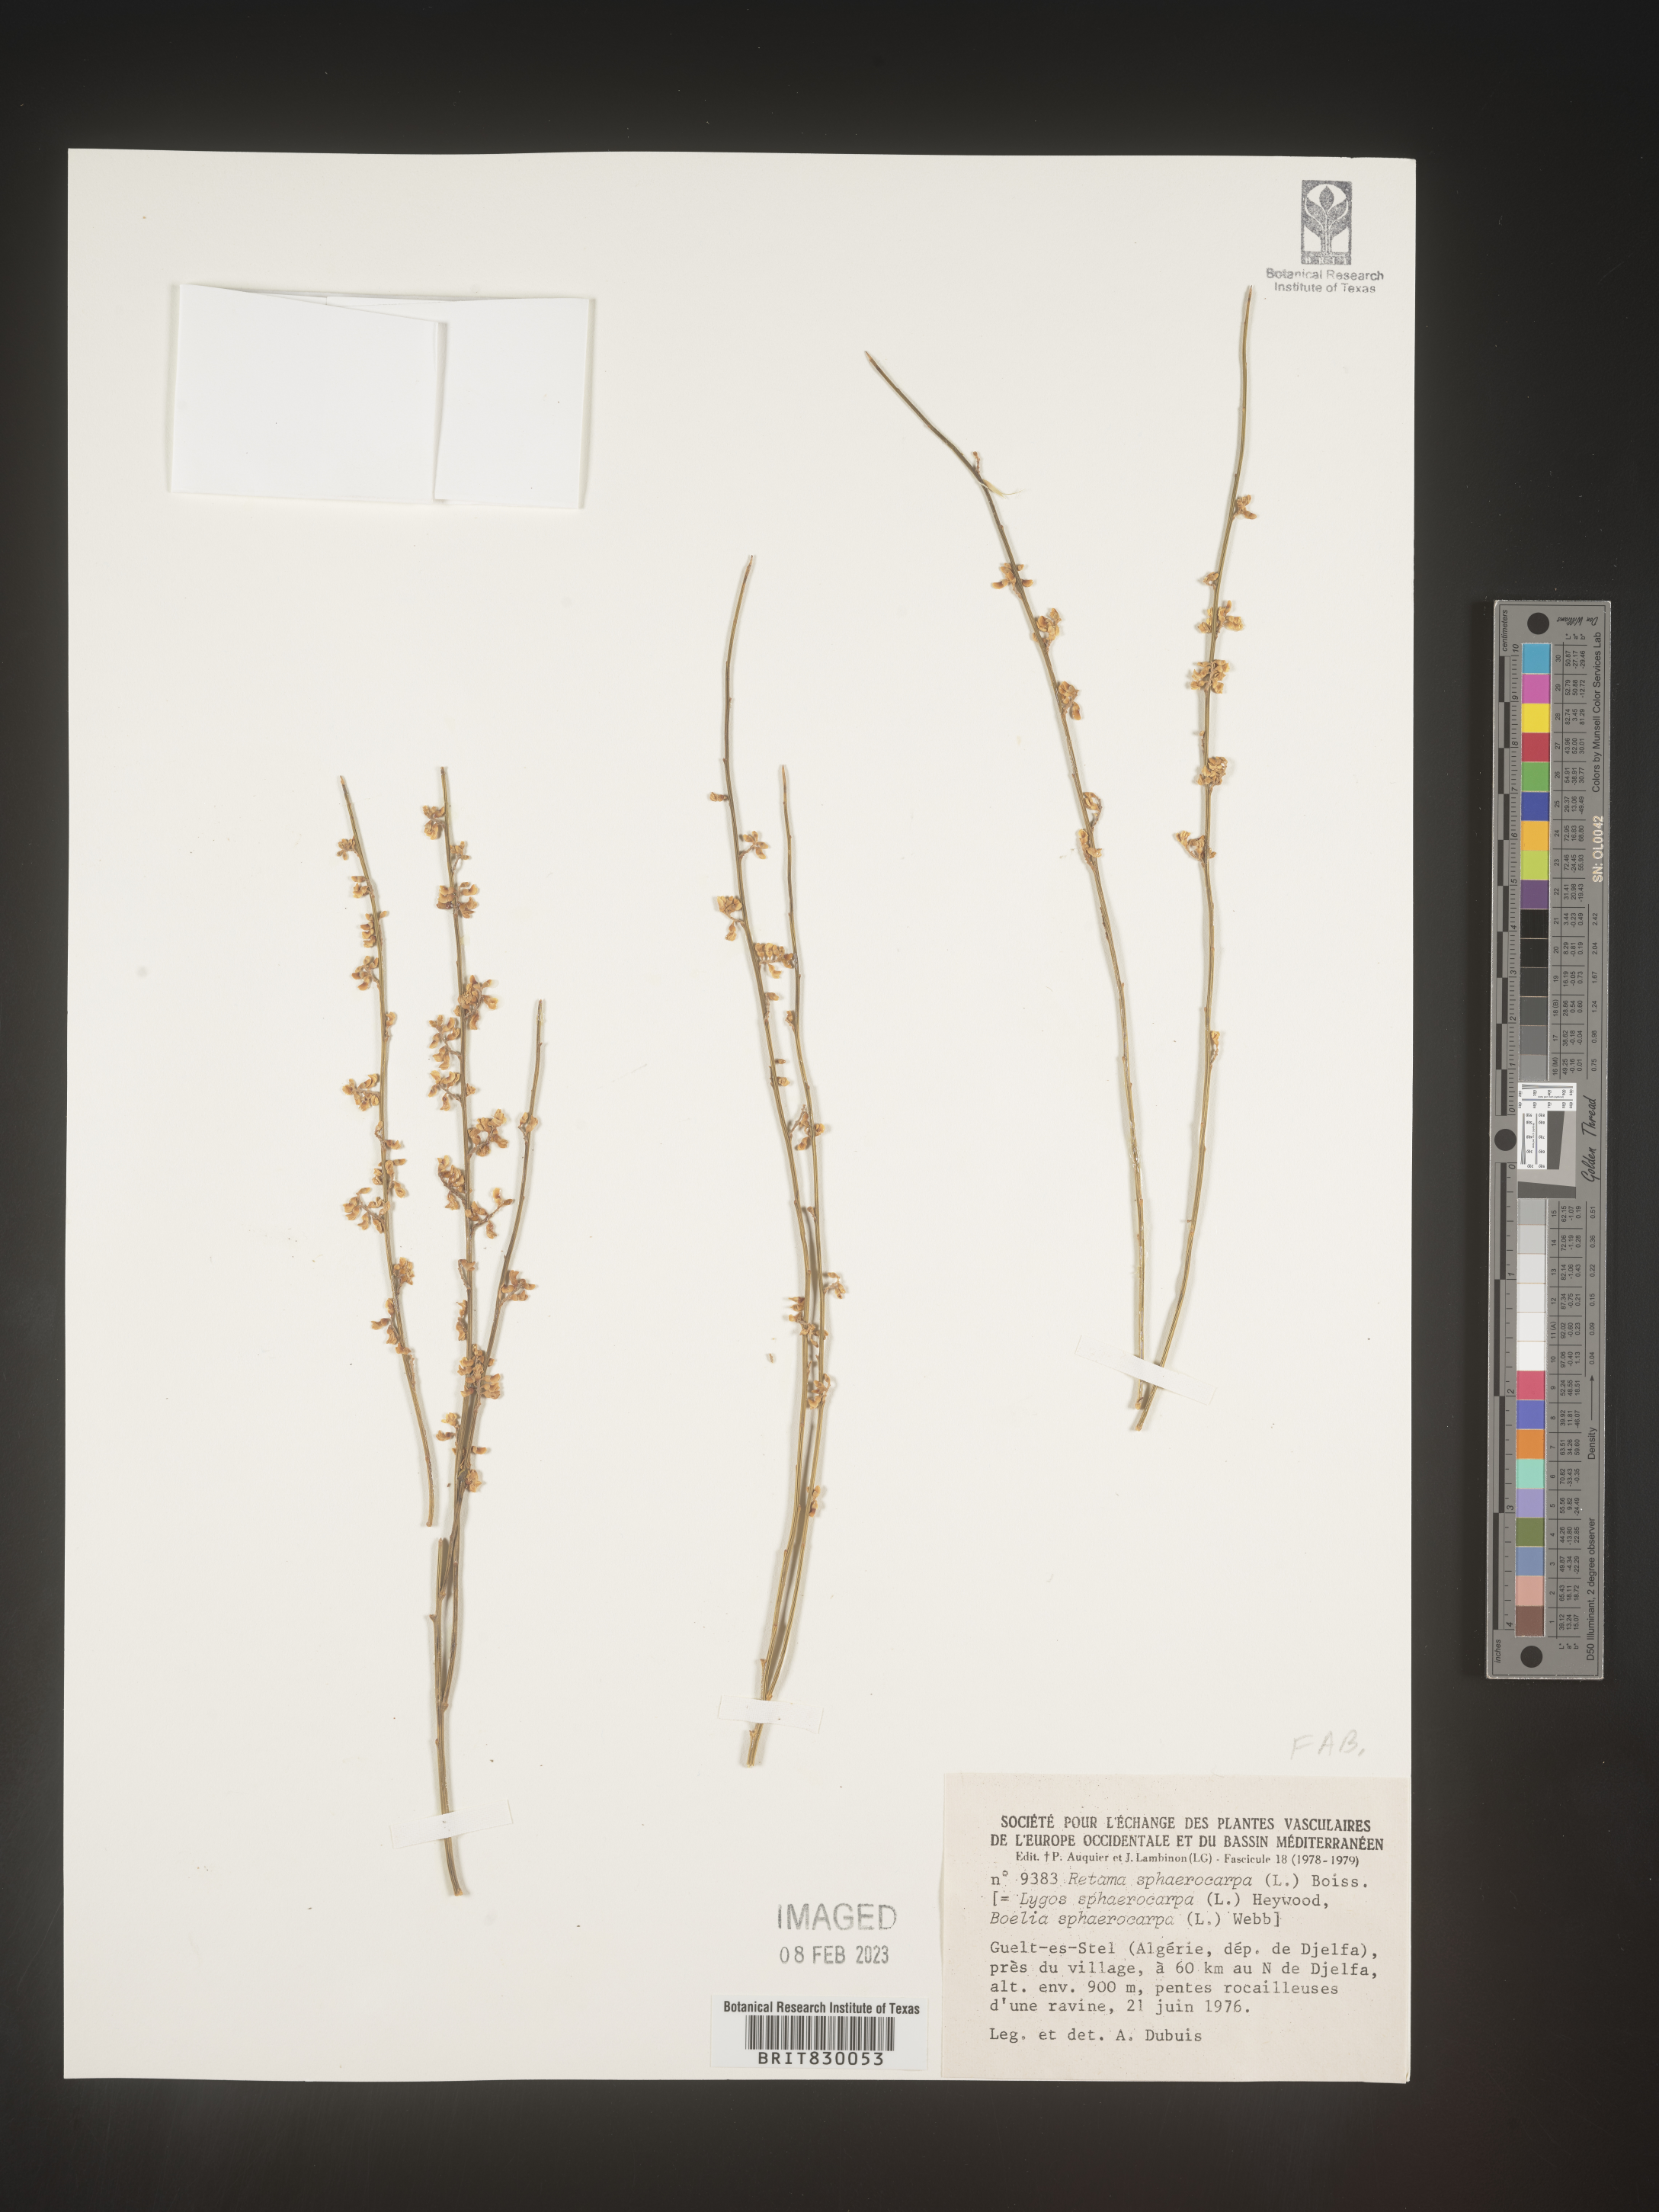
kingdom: Plantae
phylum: Tracheophyta
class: Magnoliopsida
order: Fabales
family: Fabaceae
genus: Retama
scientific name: Retama
